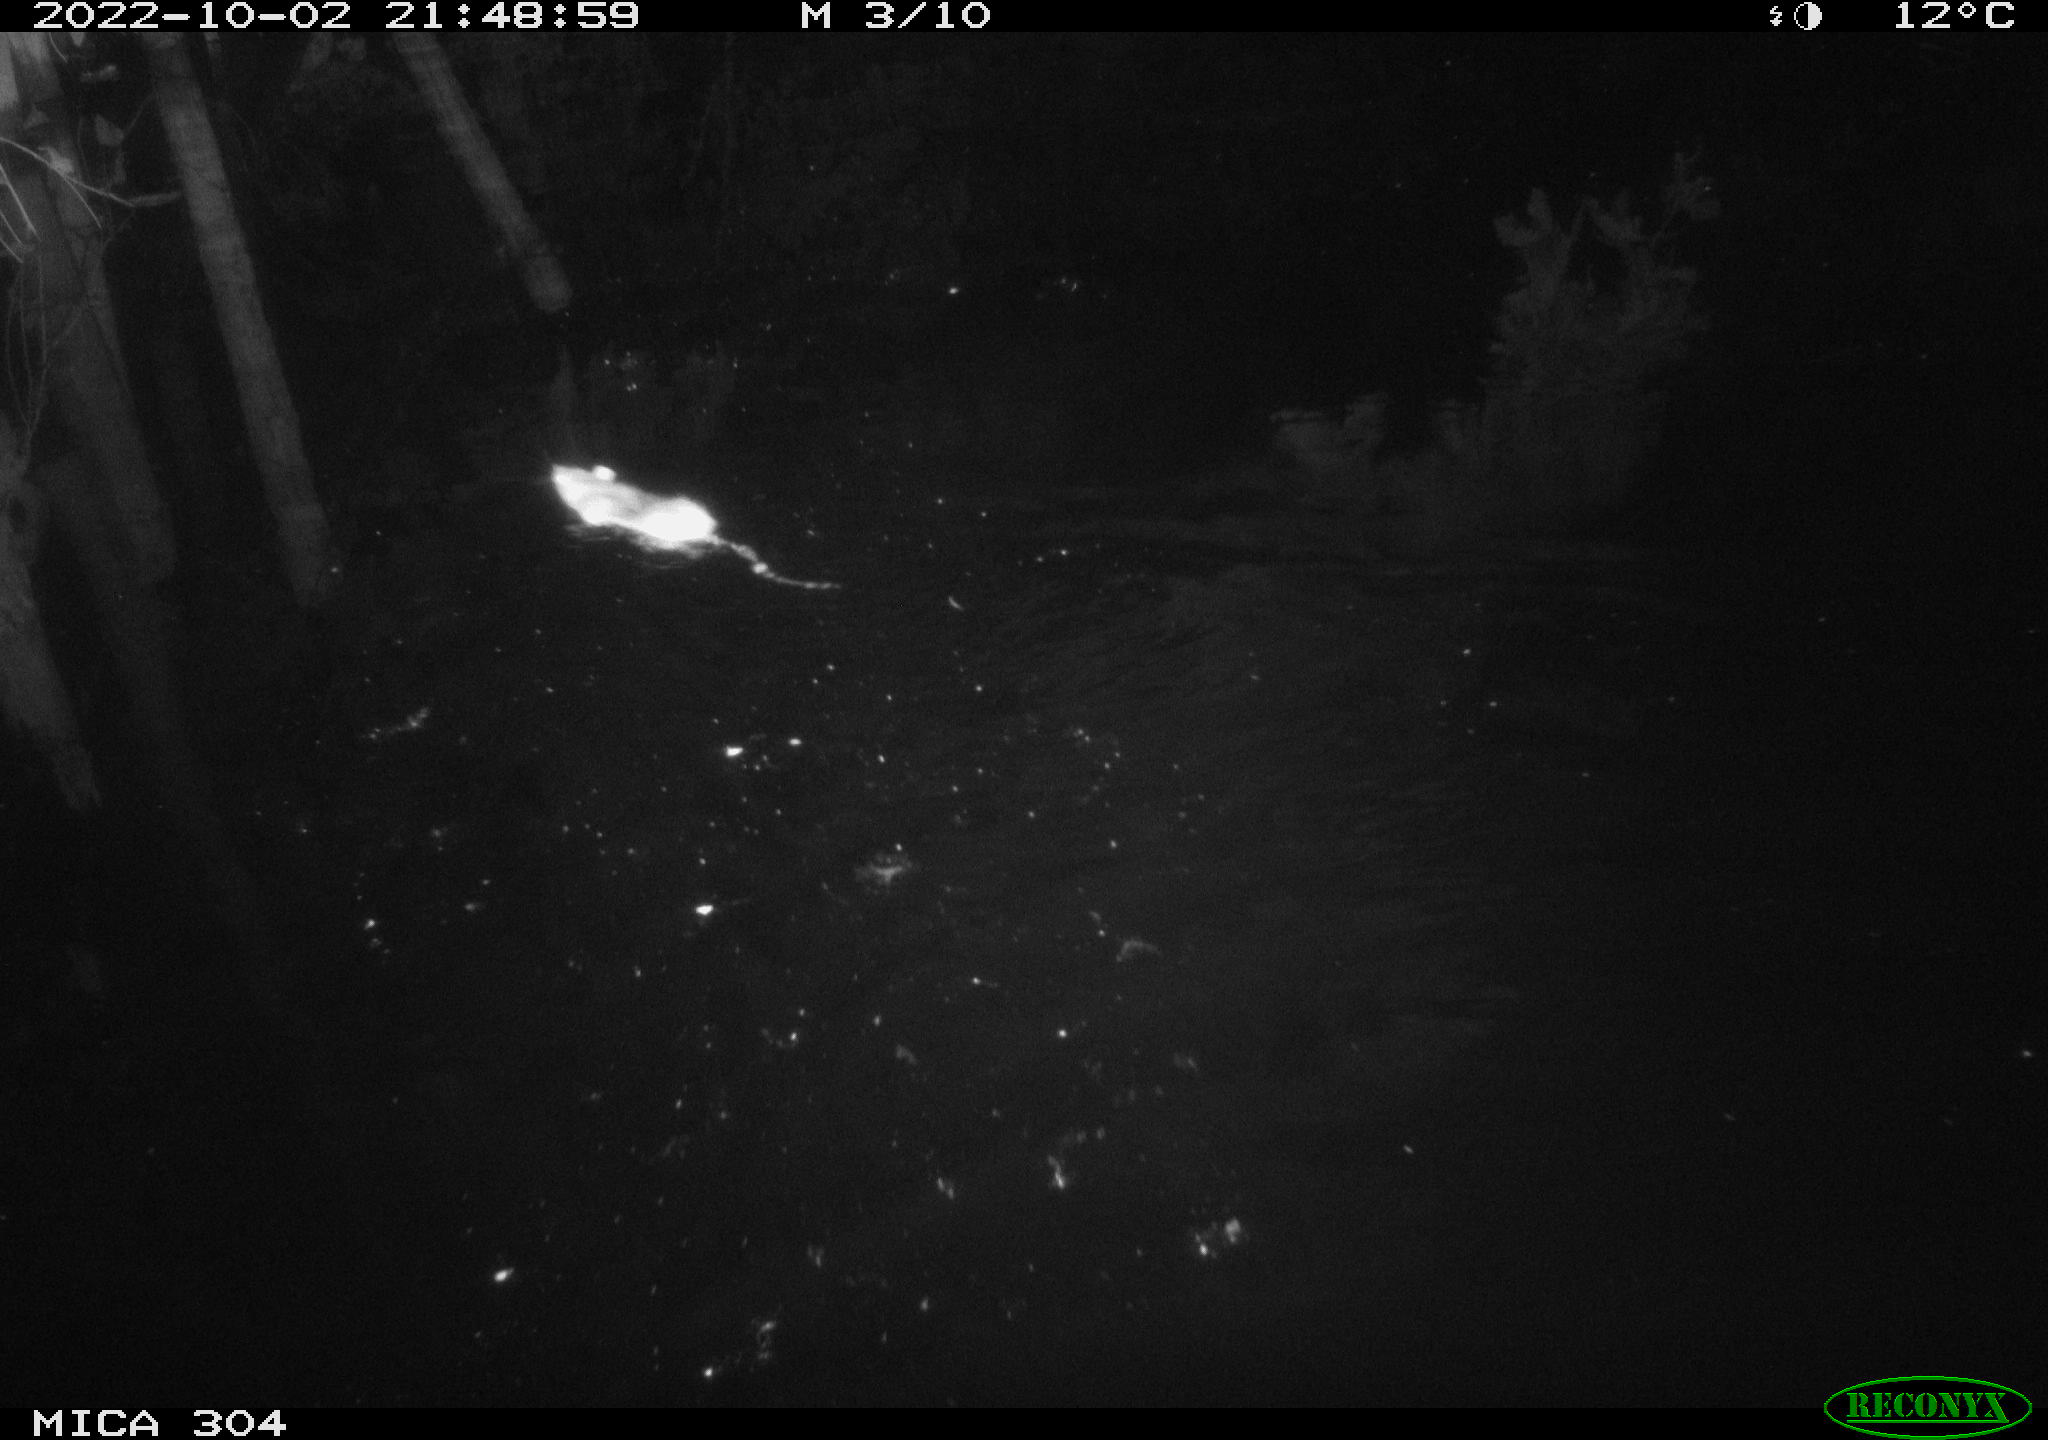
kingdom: Animalia
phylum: Chordata
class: Mammalia
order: Rodentia
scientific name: Rodentia
